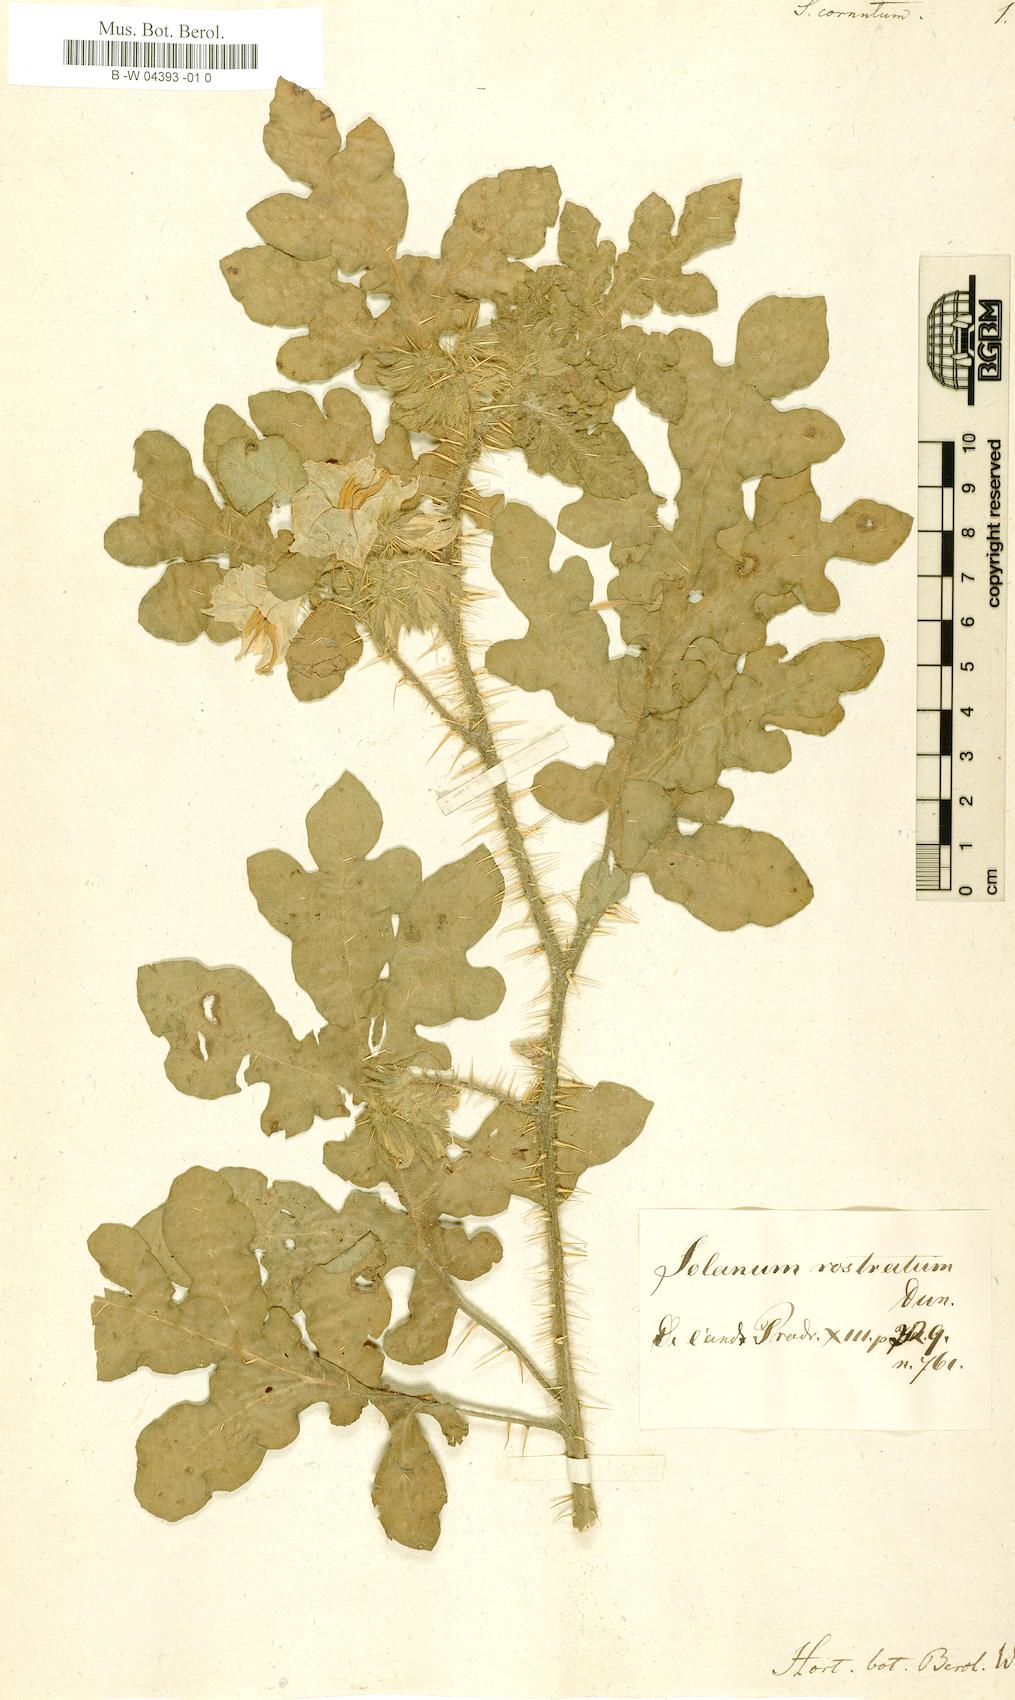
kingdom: Plantae
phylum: Tracheophyta
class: Magnoliopsida
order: Solanales
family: Solanaceae
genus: Solanum
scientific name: Solanum angustifolium
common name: Buffalobur nightshade
